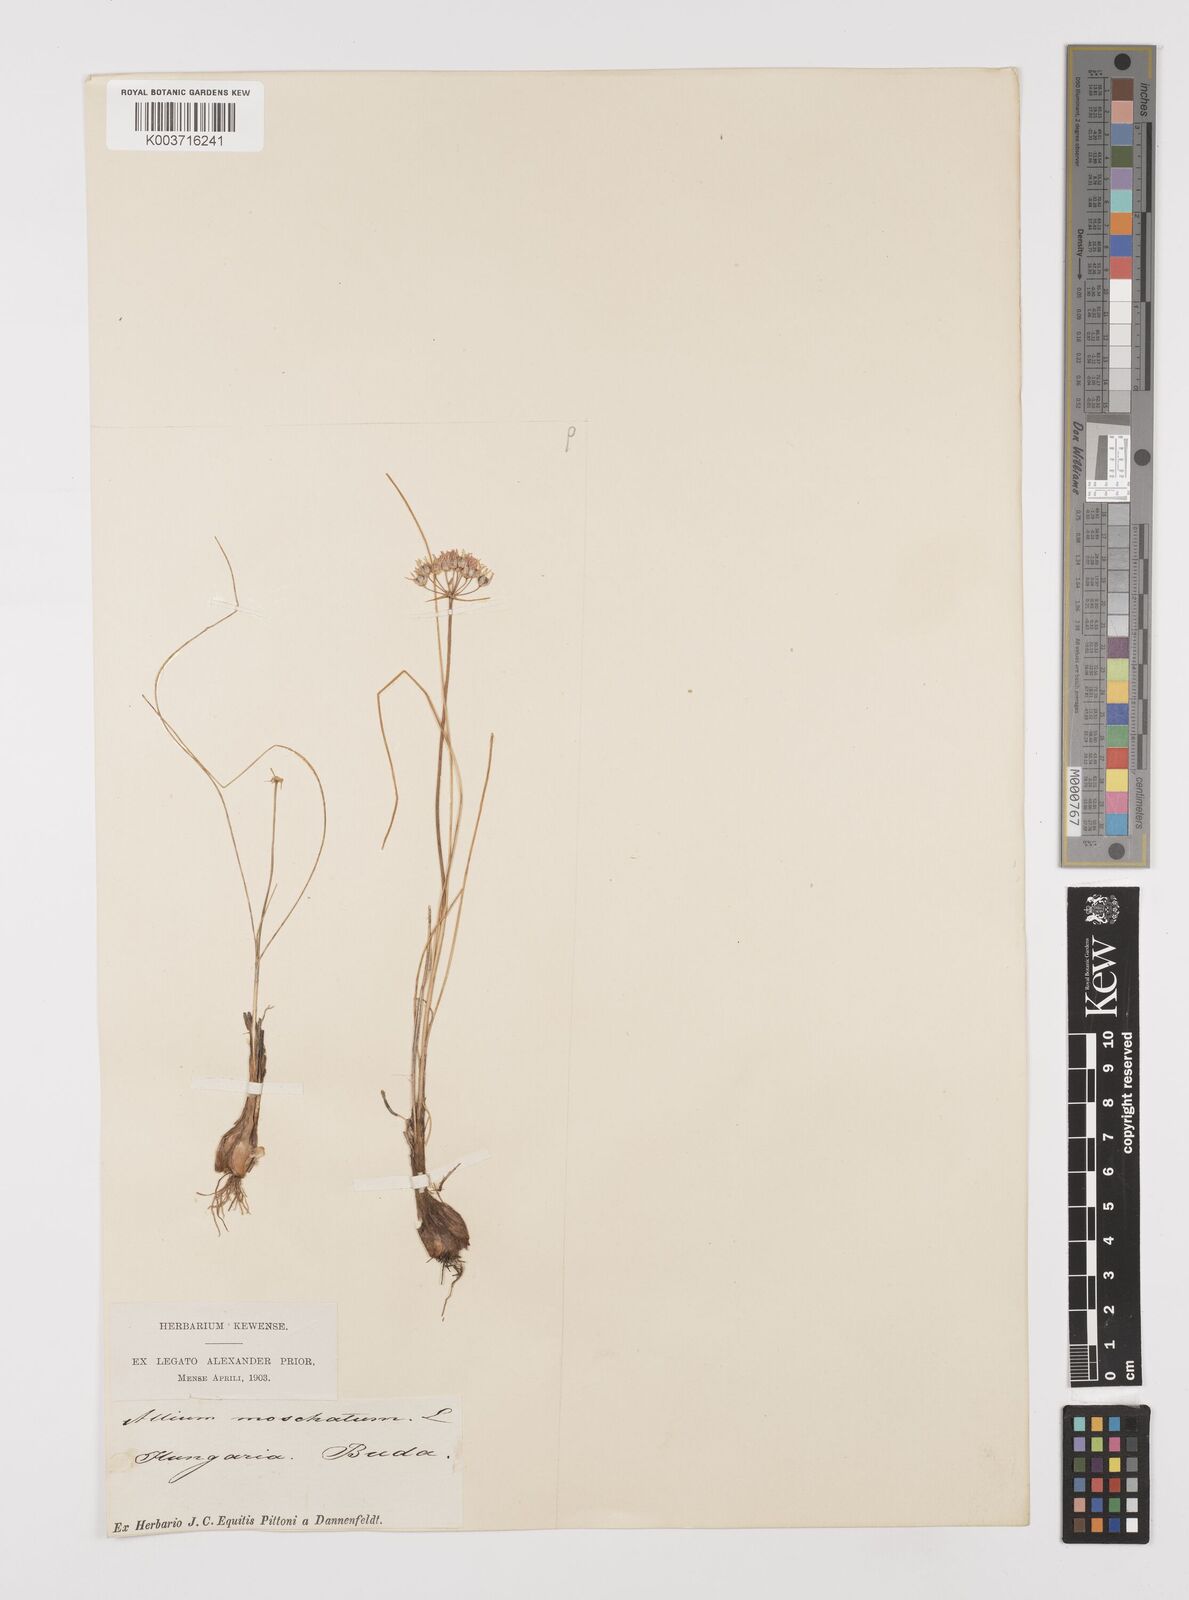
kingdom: Plantae
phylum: Tracheophyta
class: Liliopsida
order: Asparagales
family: Amaryllidaceae
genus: Allium
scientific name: Allium moschatum
